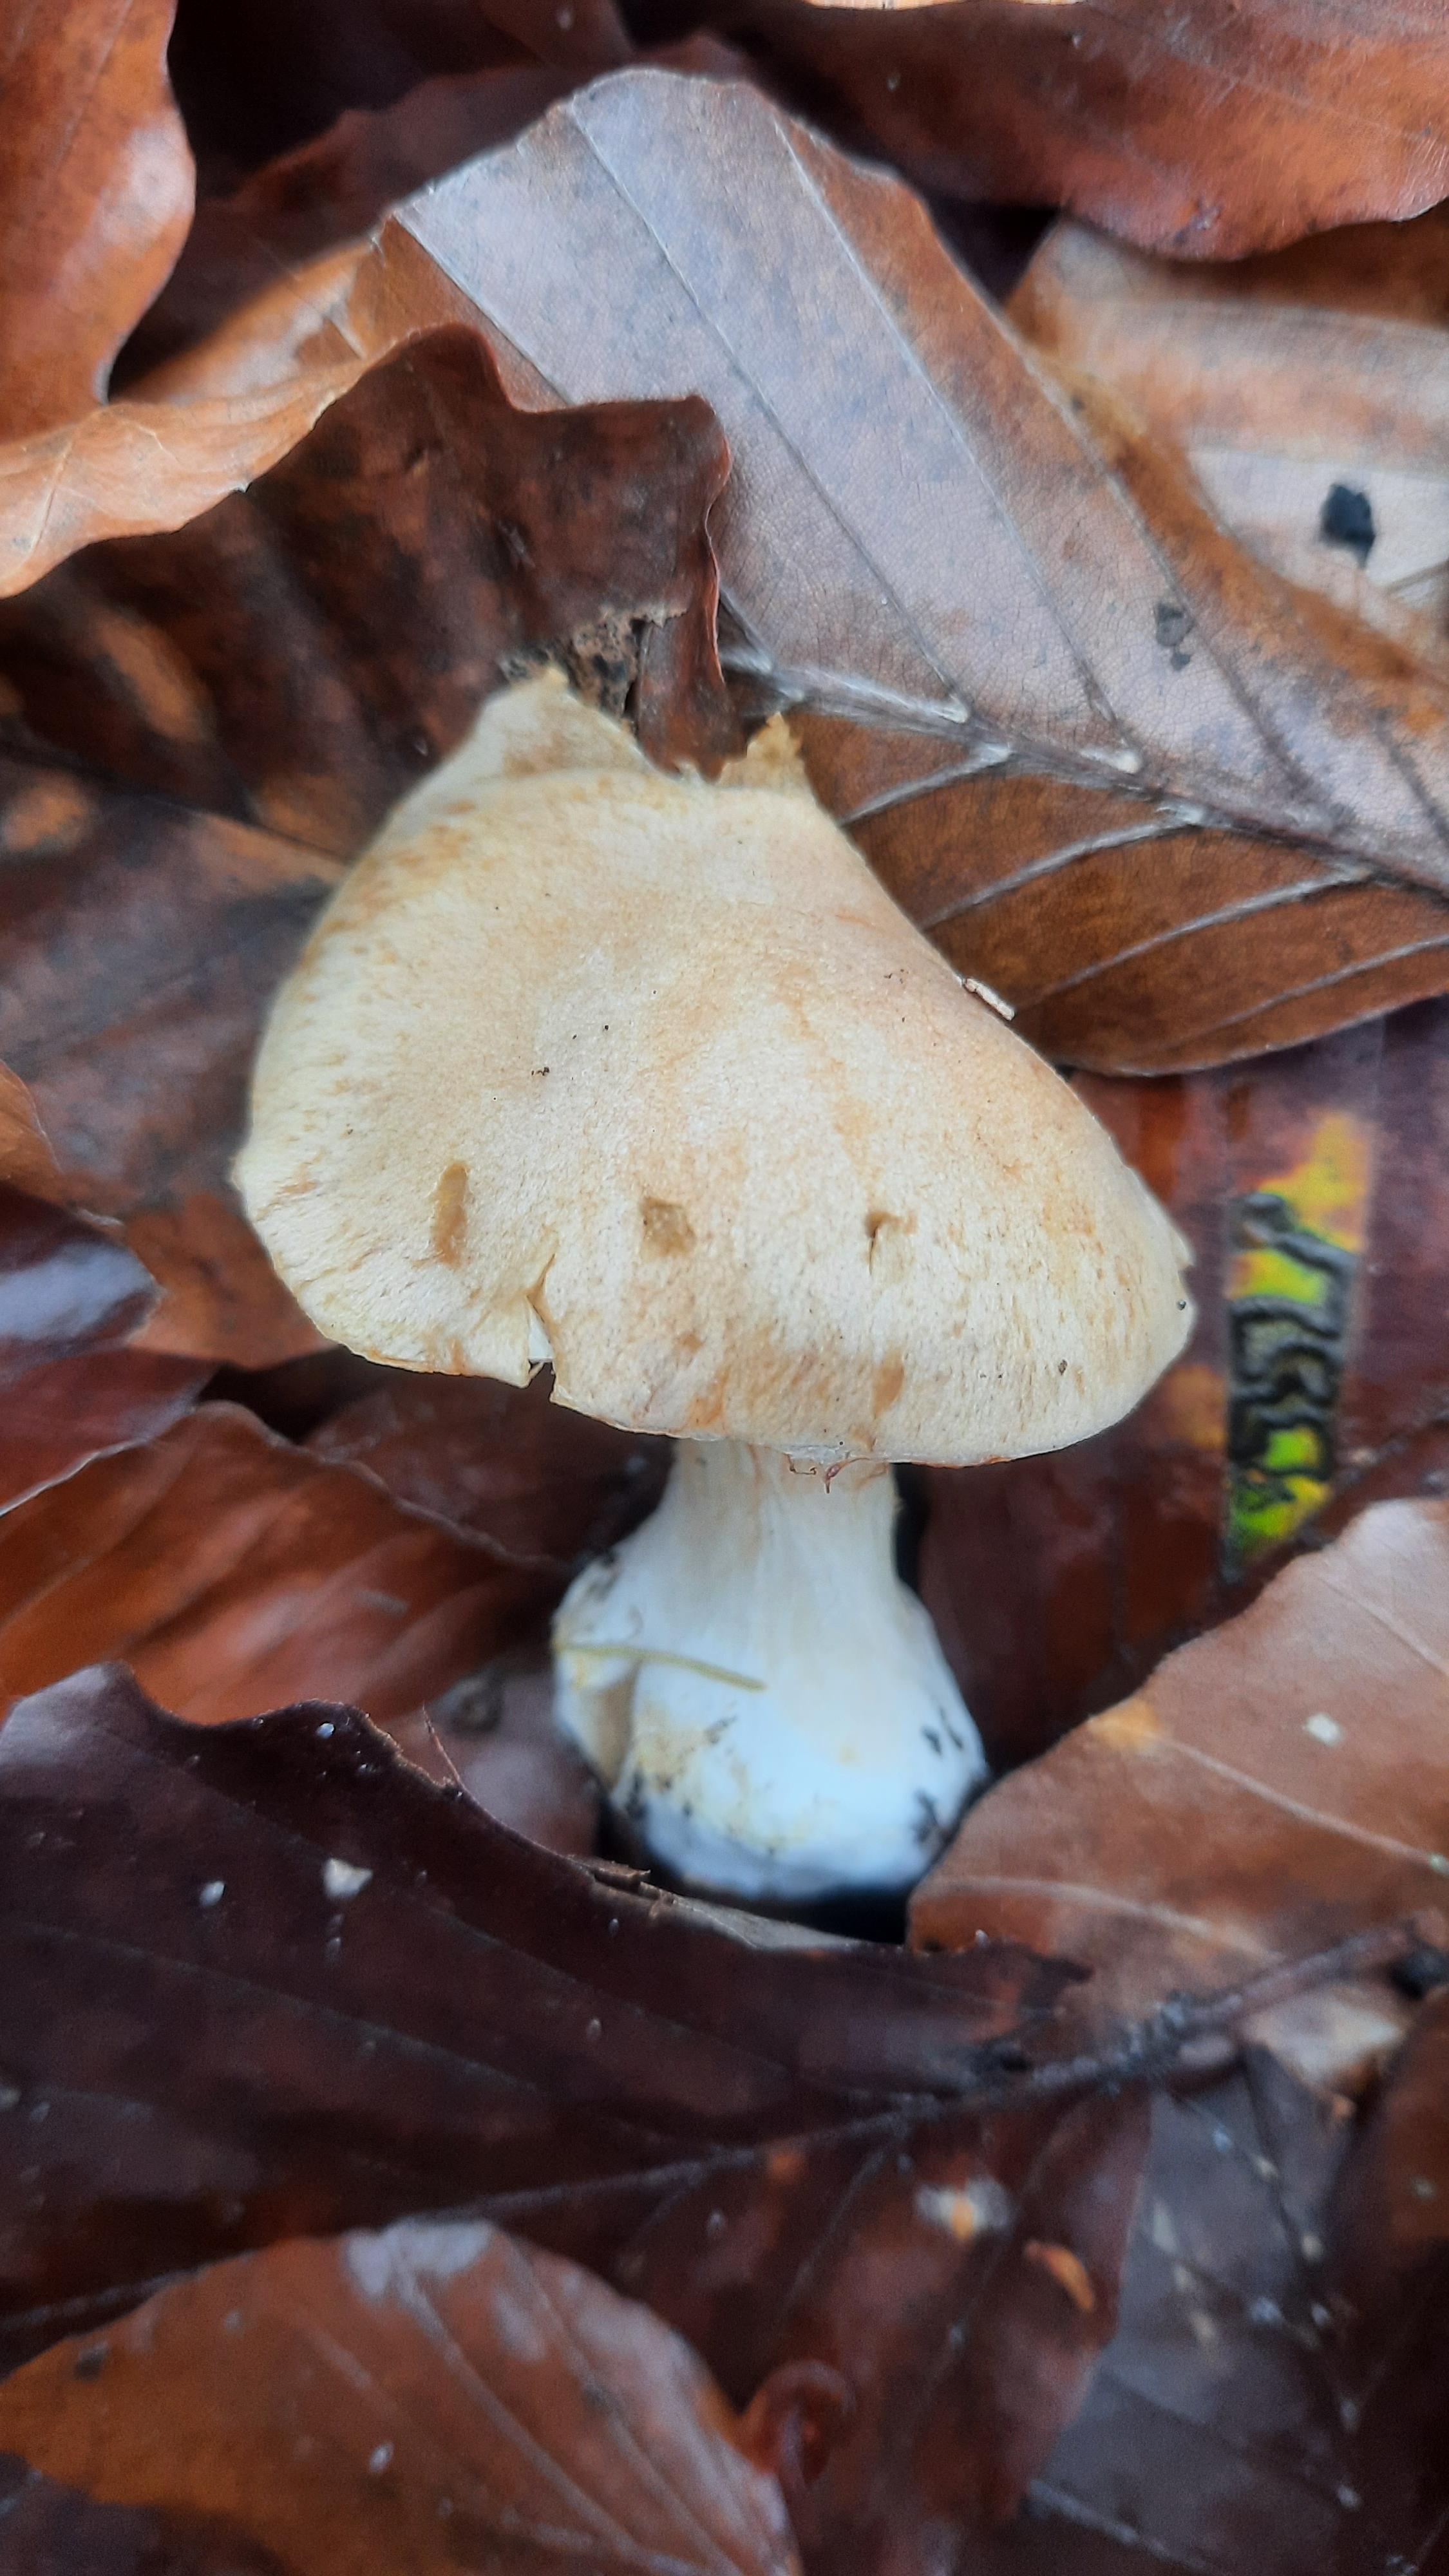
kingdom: Fungi
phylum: Basidiomycota
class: Agaricomycetes
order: Agaricales
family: Cortinariaceae
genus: Thaxterogaster
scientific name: Thaxterogaster talus
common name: knogle-slørhat
